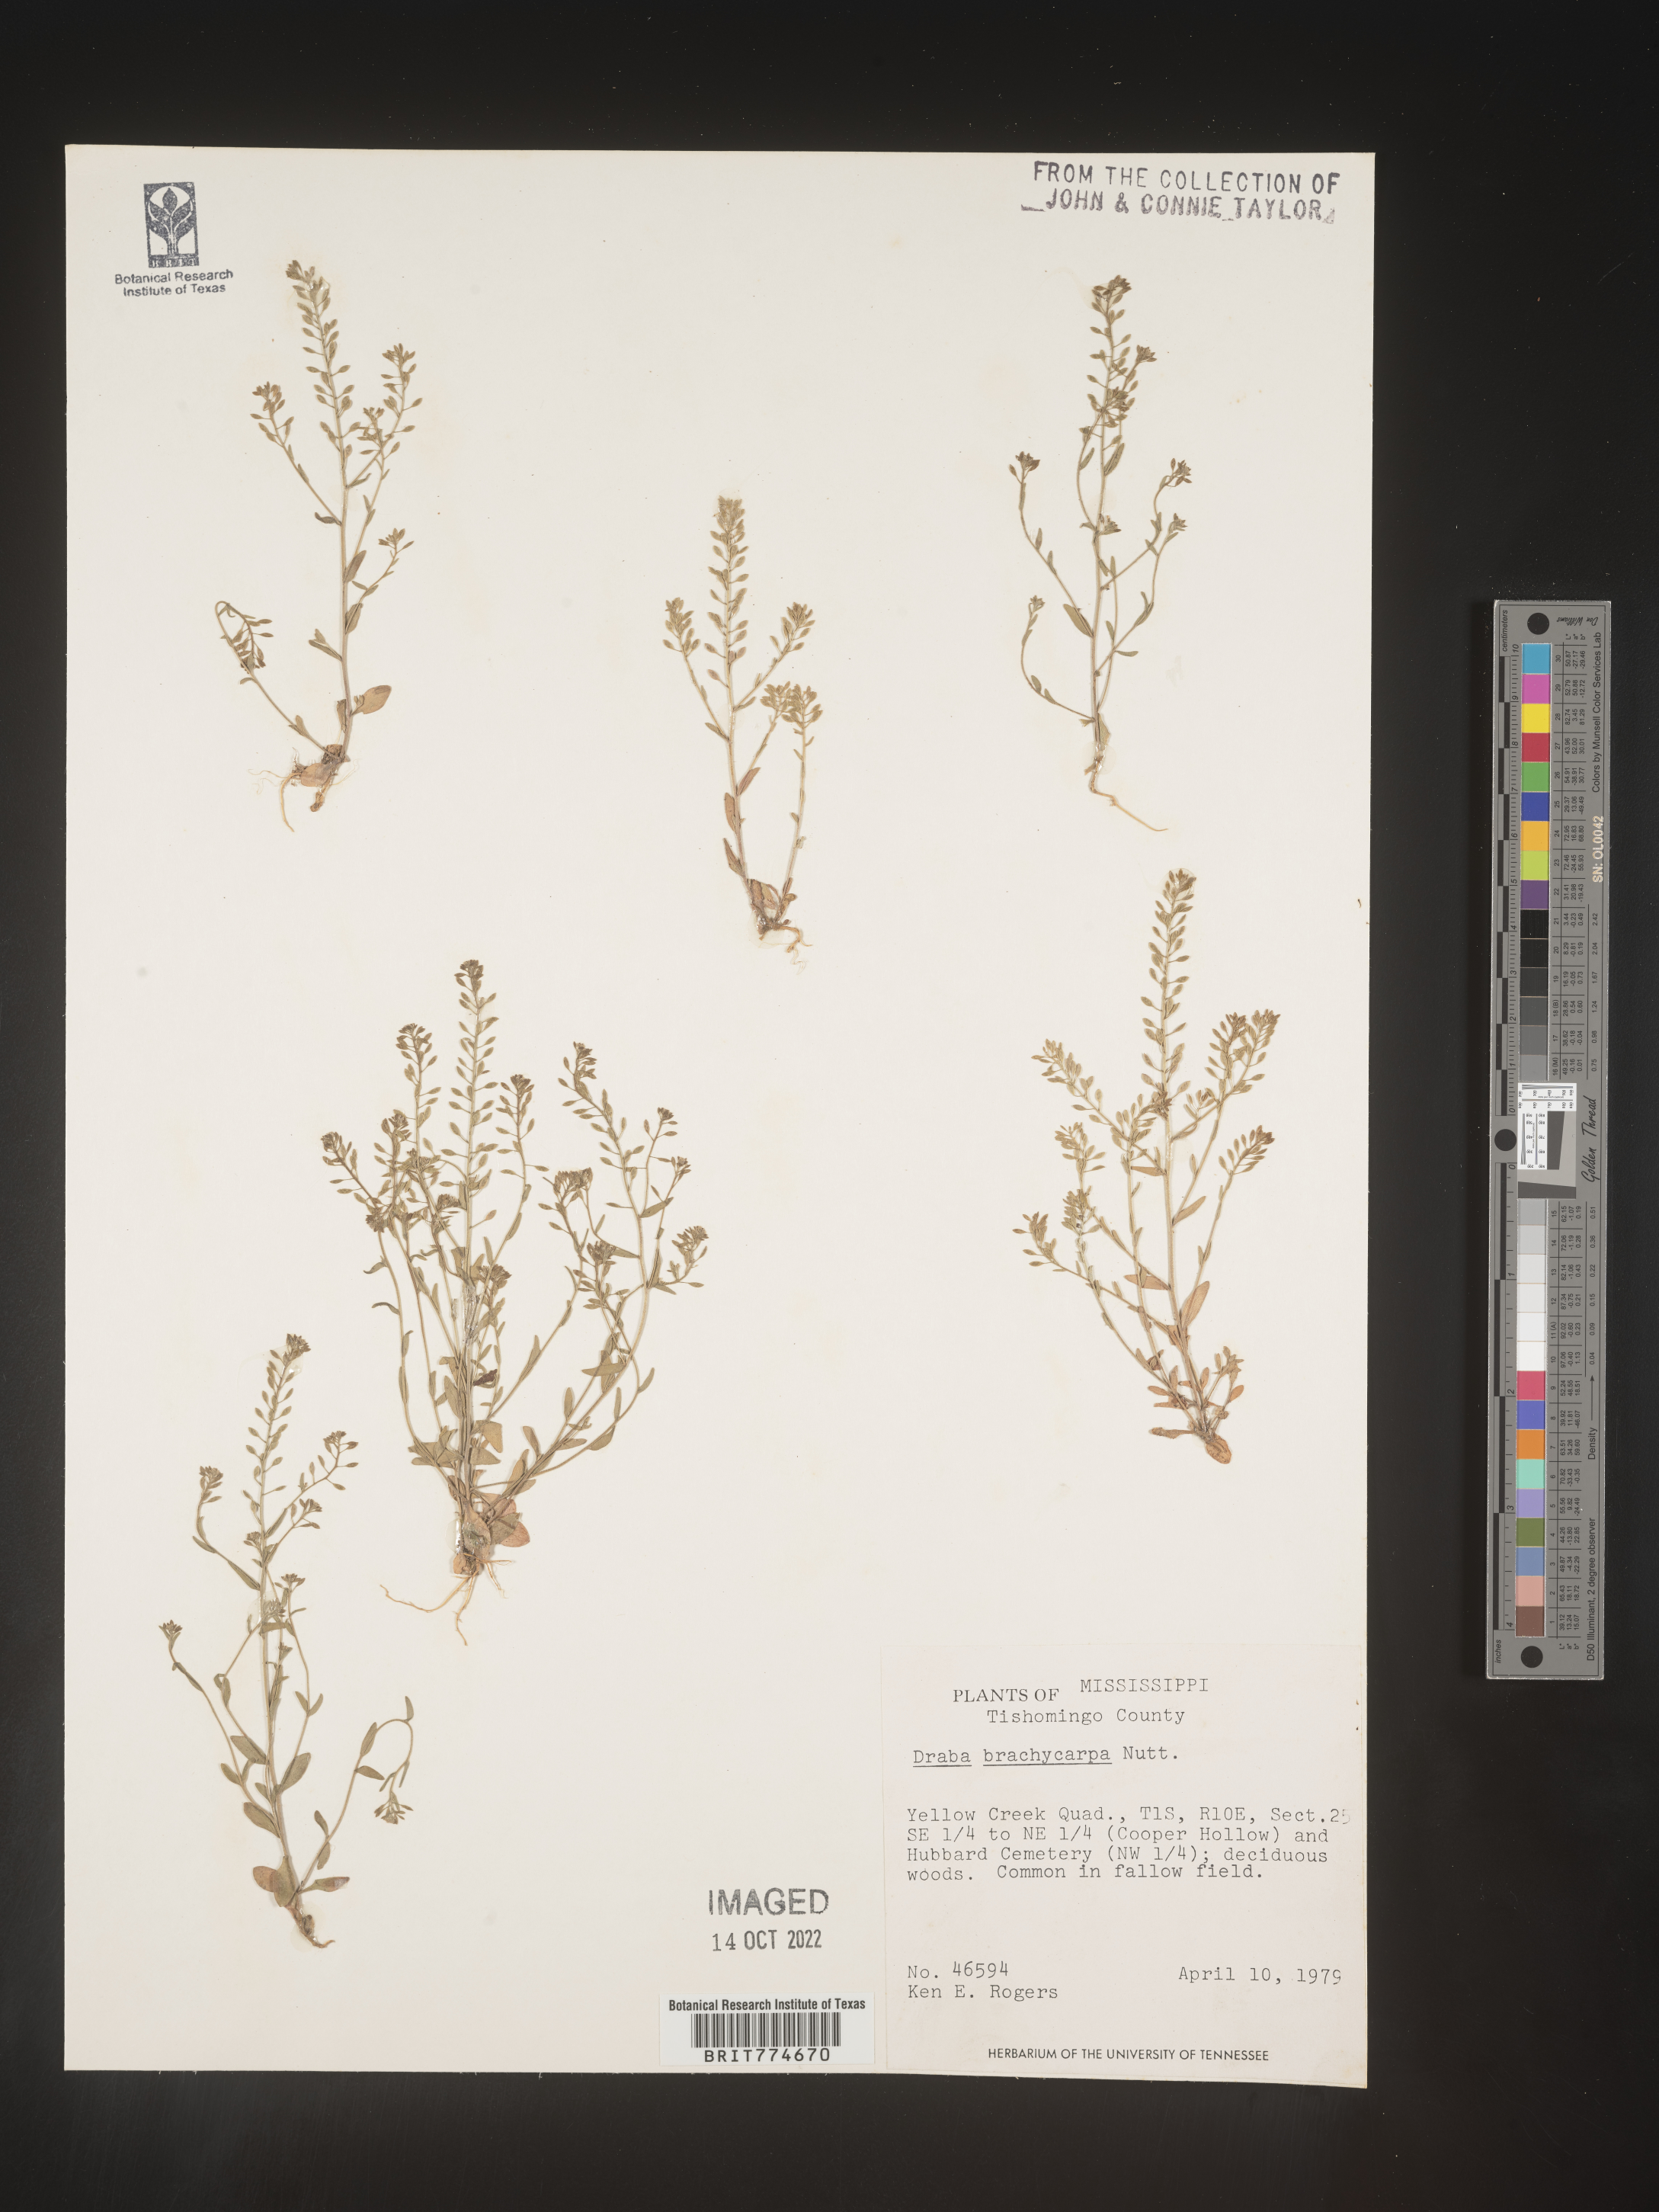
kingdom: Plantae
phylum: Tracheophyta
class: Magnoliopsida
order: Brassicales
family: Brassicaceae
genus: Abdra
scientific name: Abdra brachycarpa
